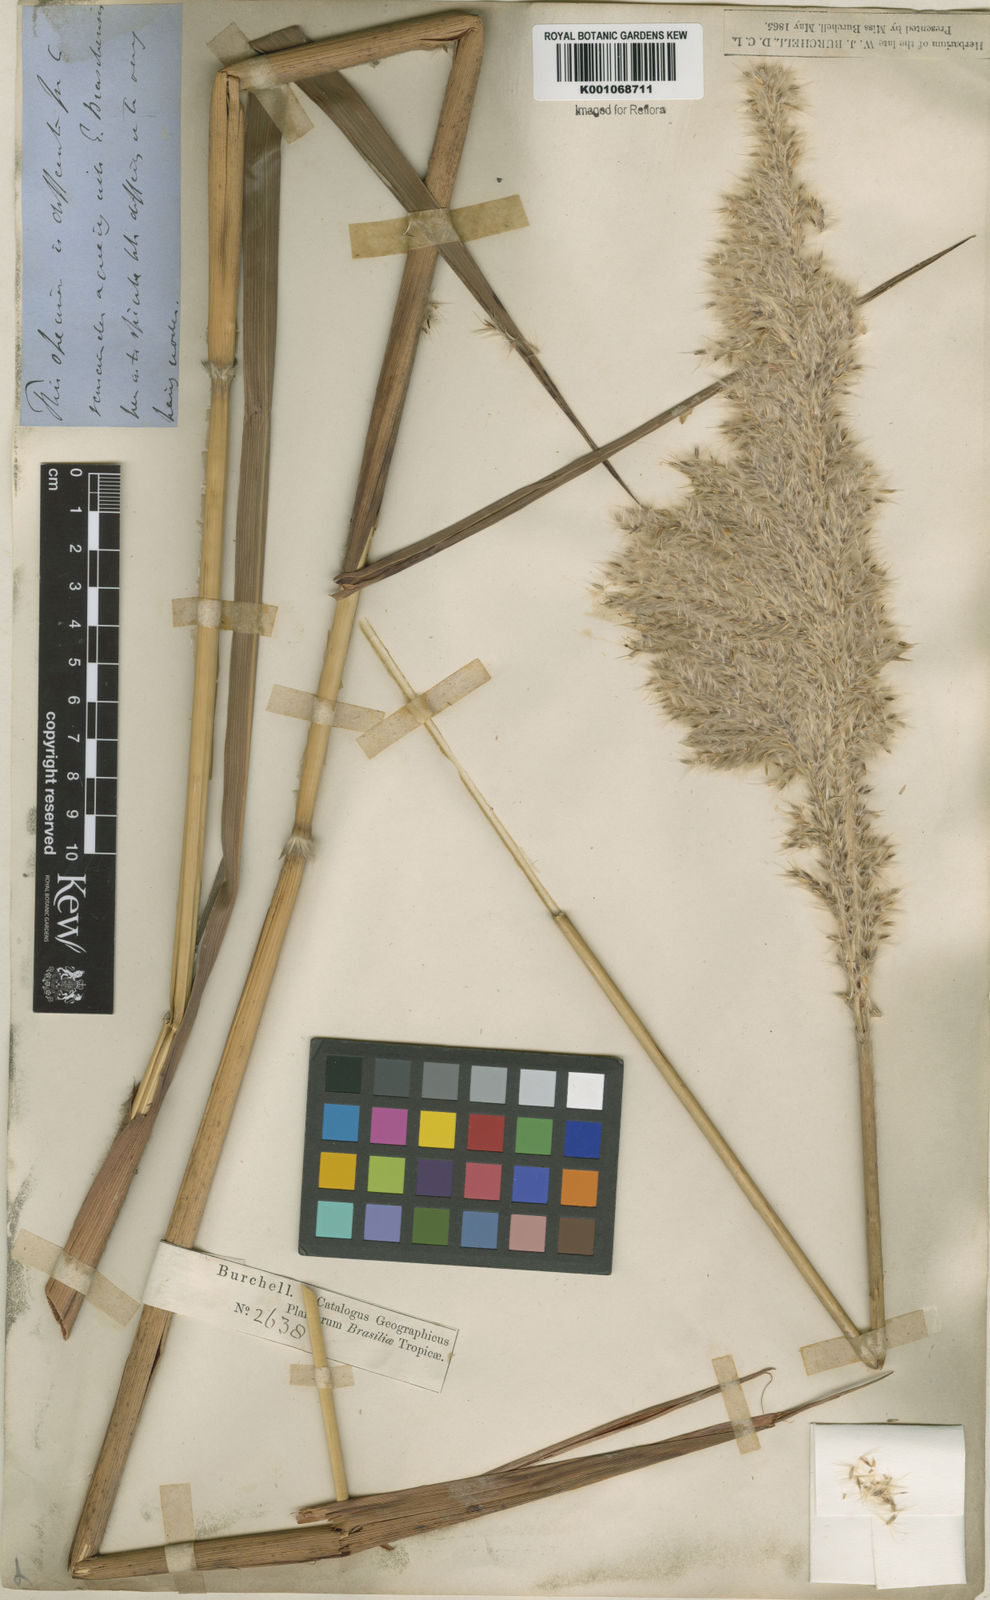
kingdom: Plantae
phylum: Tracheophyta
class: Liliopsida
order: Poales
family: Poaceae
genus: Erianthus
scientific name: Erianthus asper
